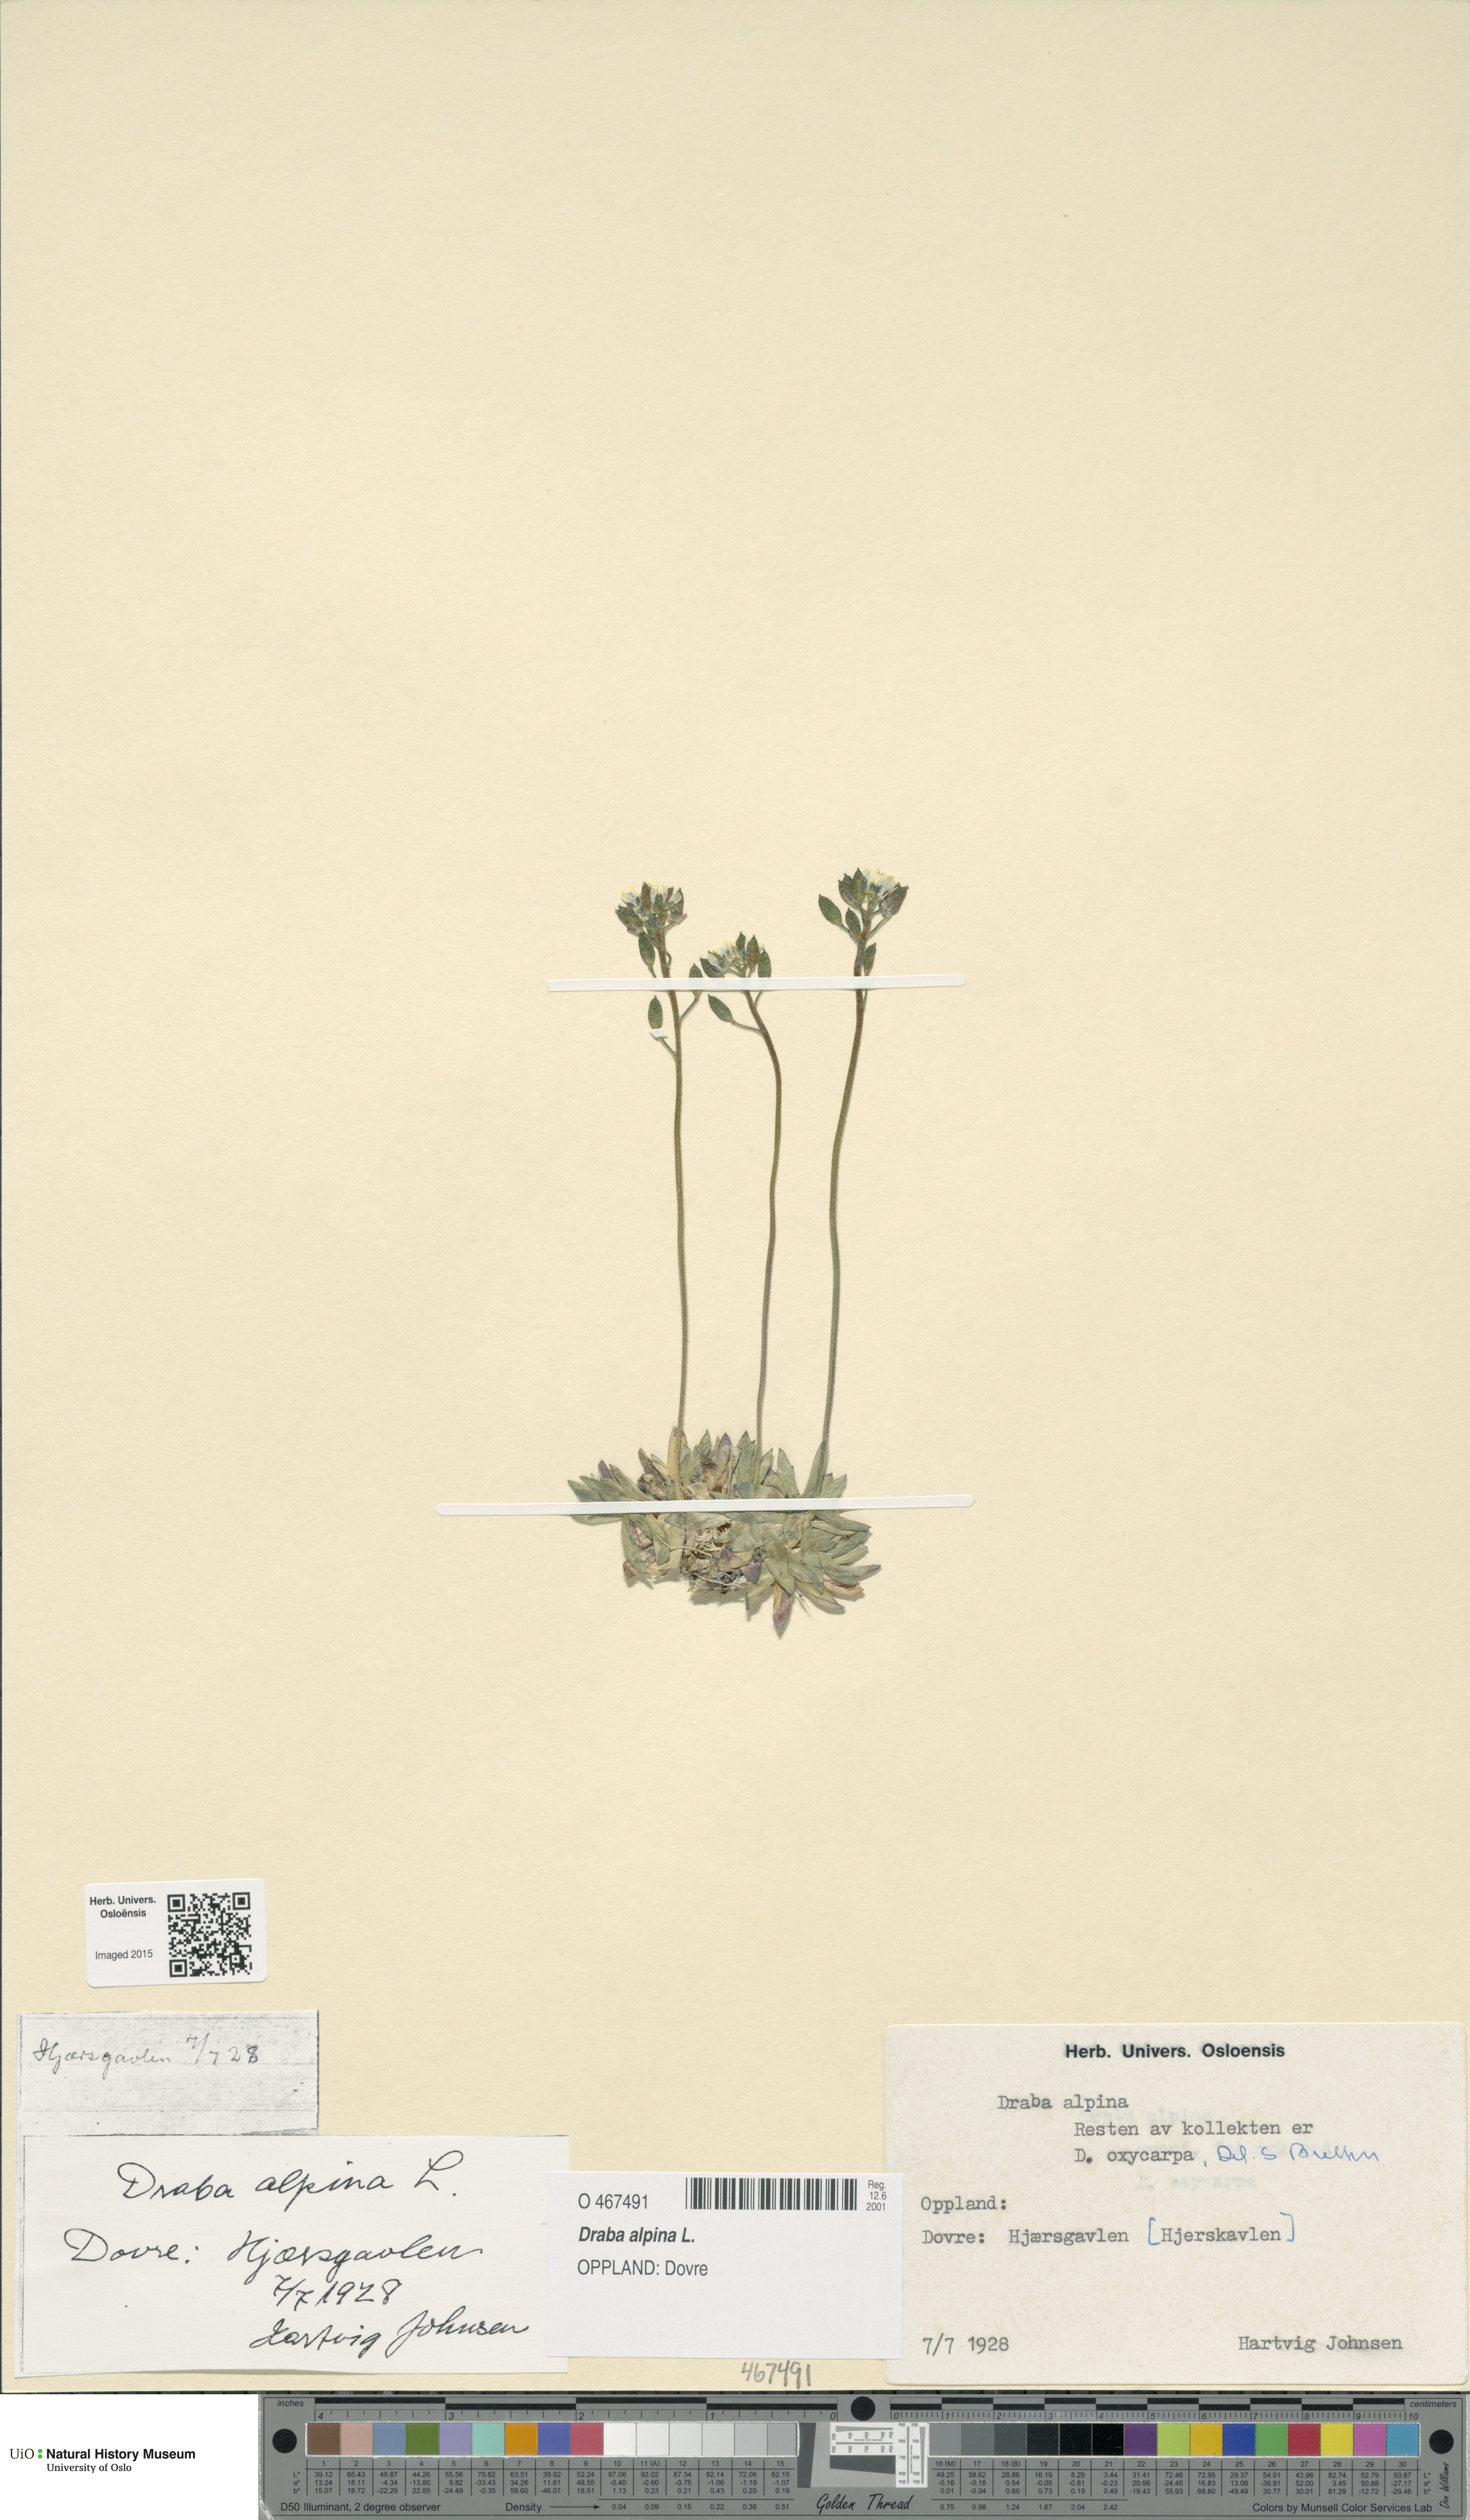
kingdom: Plantae
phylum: Tracheophyta
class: Magnoliopsida
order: Brassicales
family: Brassicaceae
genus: Draba
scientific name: Draba alpina
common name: Alpine draba
